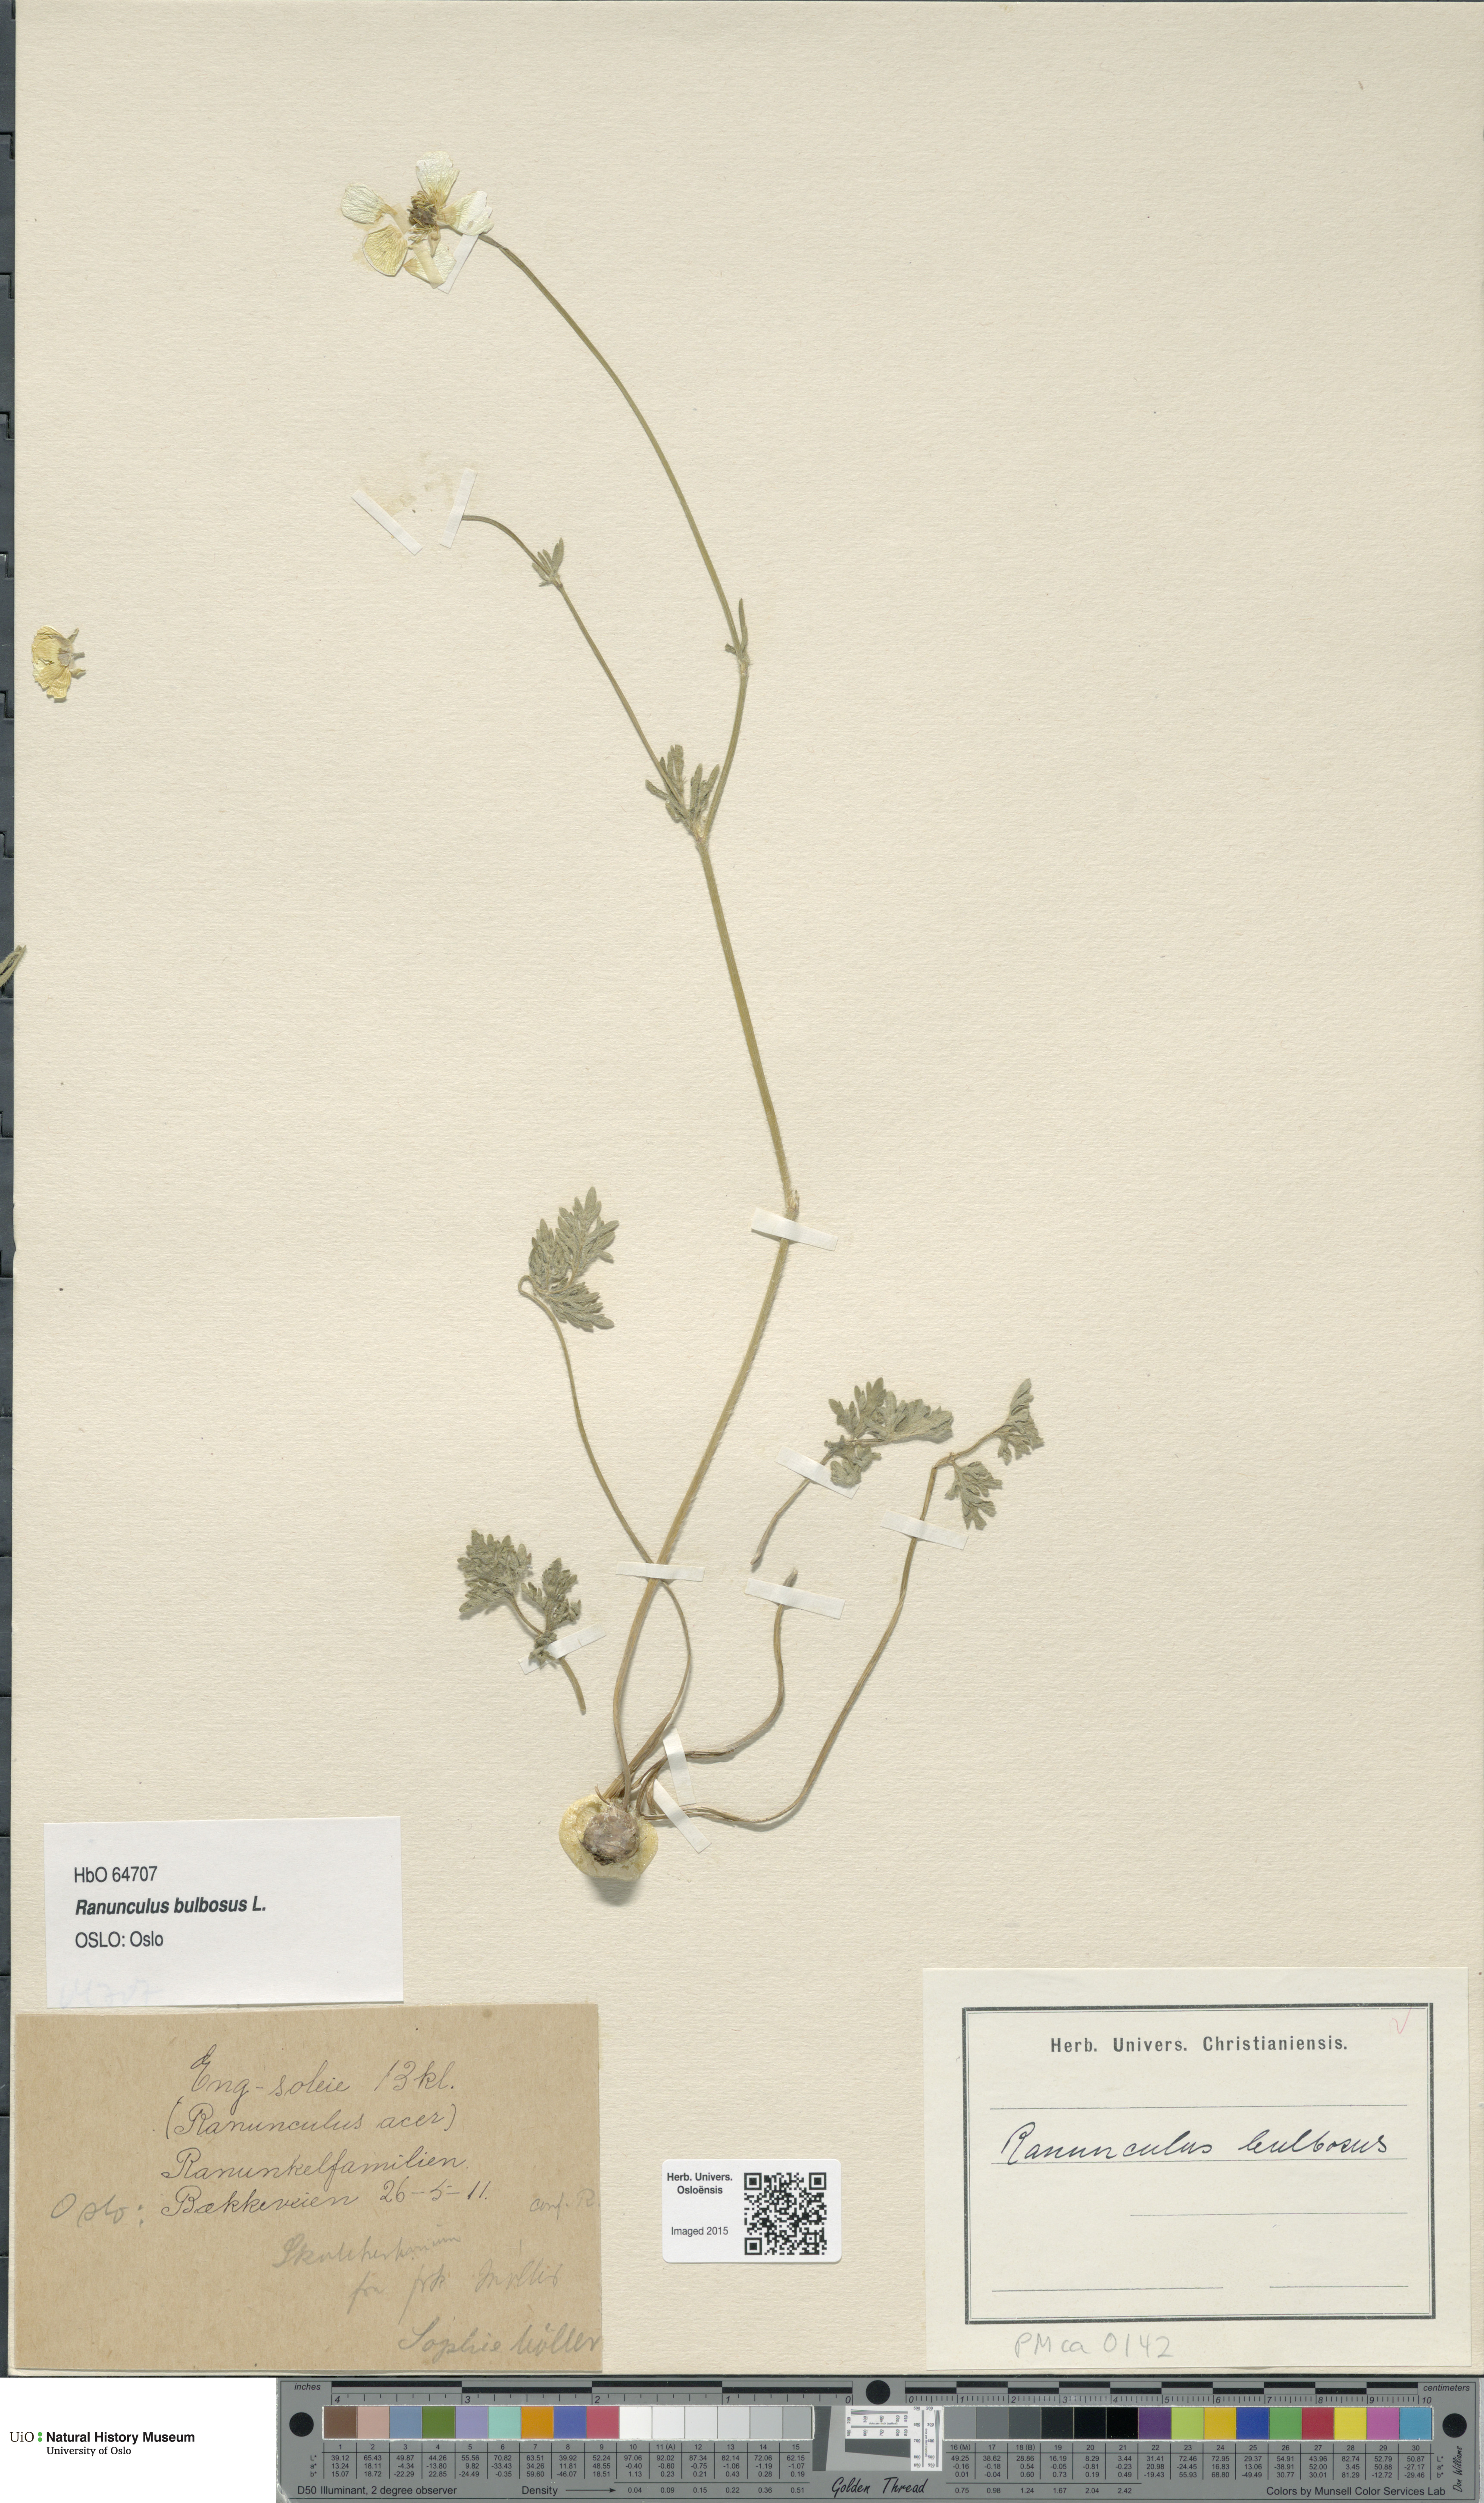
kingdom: Plantae
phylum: Tracheophyta
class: Magnoliopsida
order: Ranunculales
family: Ranunculaceae
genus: Ranunculus
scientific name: Ranunculus bulbosus
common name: Bulbous buttercup
